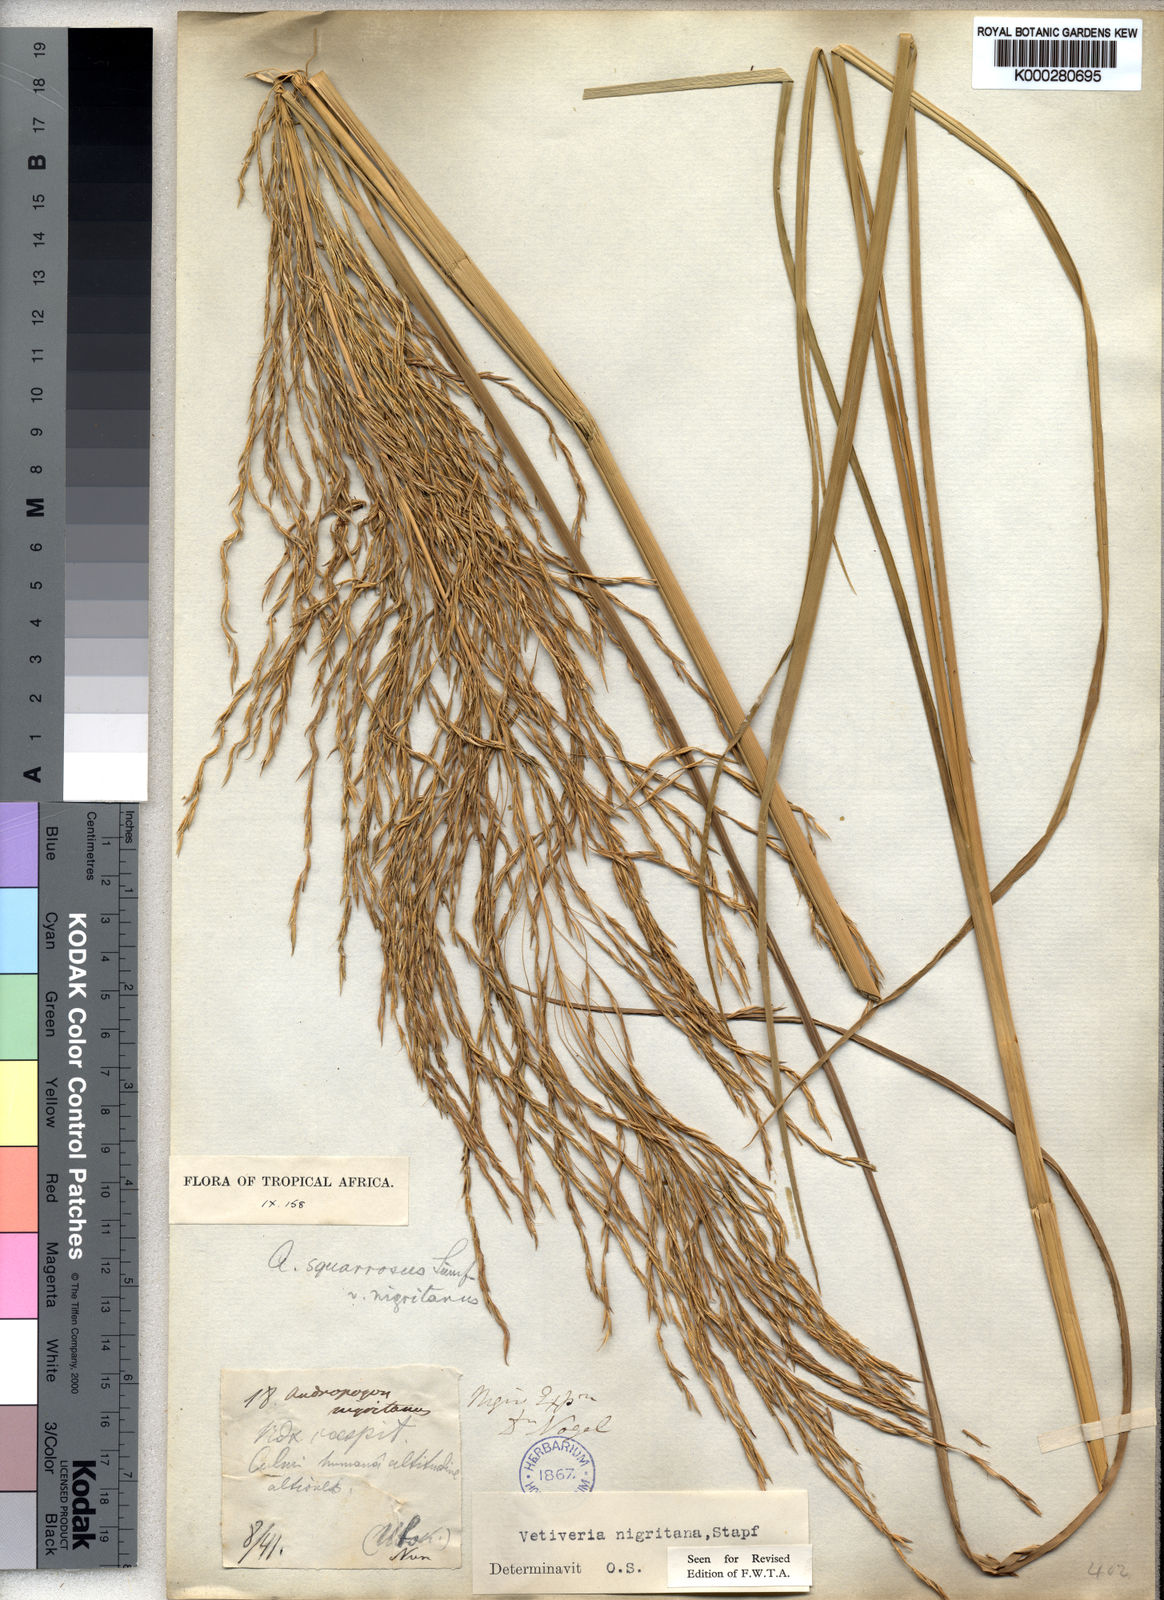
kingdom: Plantae
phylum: Tracheophyta
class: Liliopsida
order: Poales
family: Poaceae
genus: Chrysopogon
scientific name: Chrysopogon nigritanus
